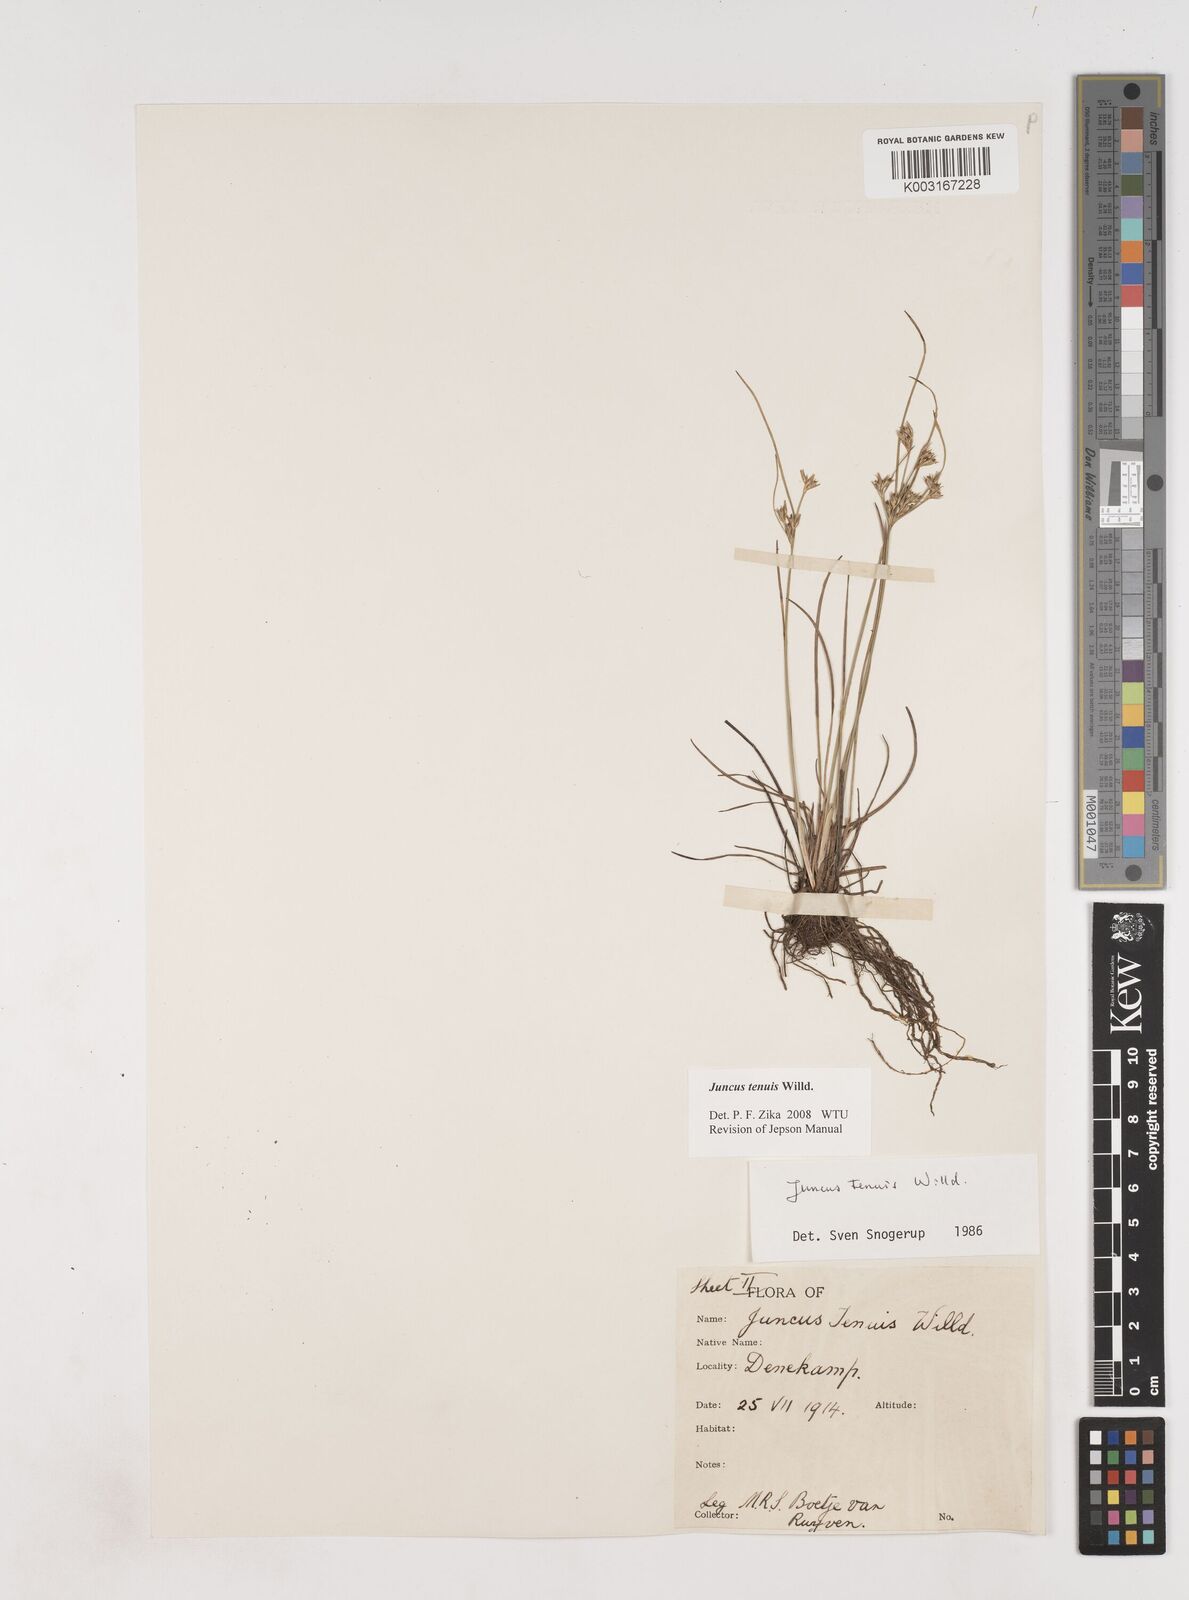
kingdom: Plantae
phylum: Tracheophyta
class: Liliopsida
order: Poales
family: Juncaceae
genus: Juncus
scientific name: Juncus tenuis
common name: Slender rush
